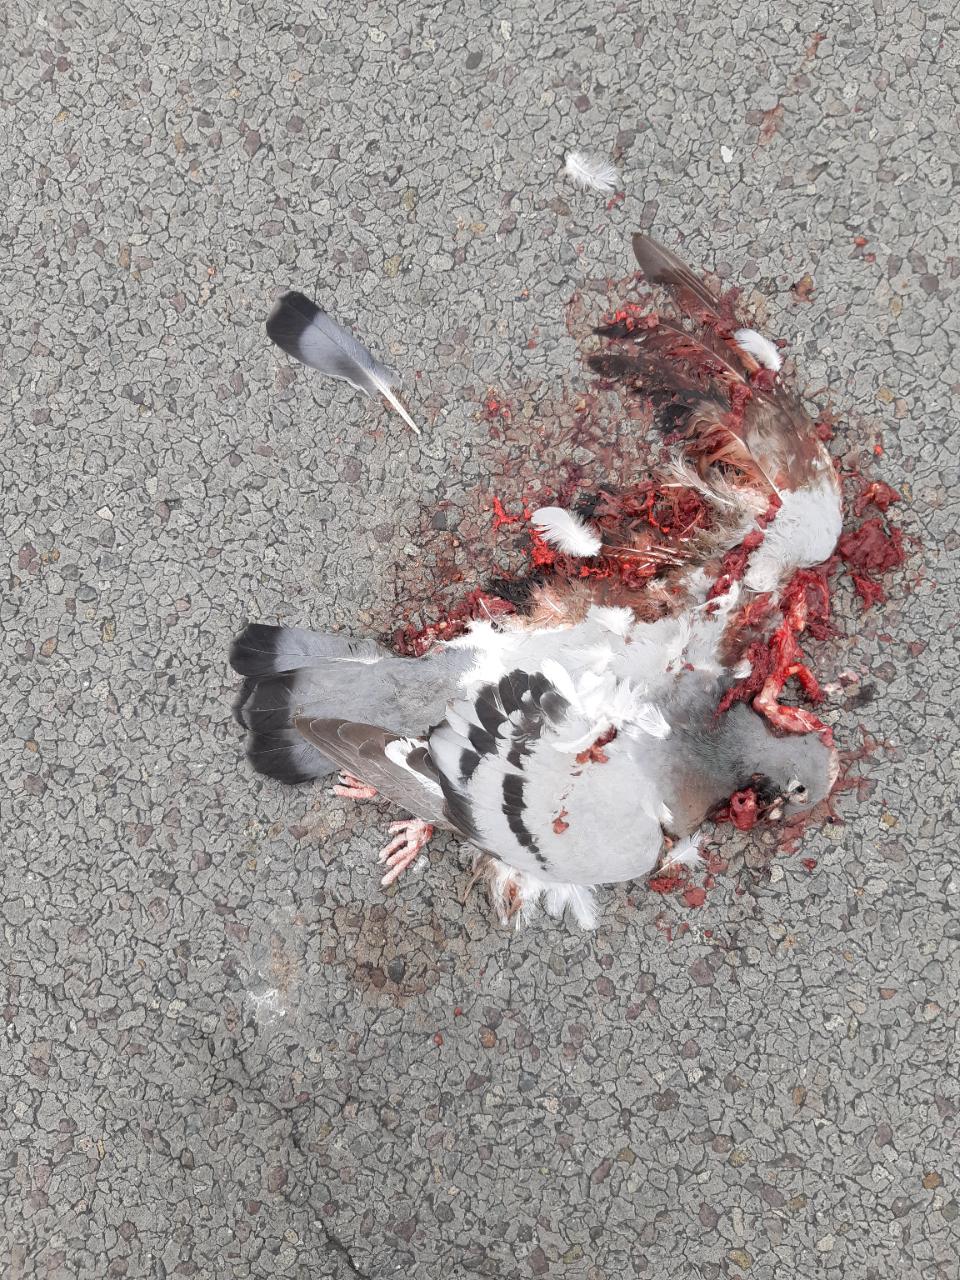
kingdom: Animalia
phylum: Chordata
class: Aves
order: Columbiformes
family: Columbidae
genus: Columba
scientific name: Columba livia
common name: Rock pigeon
